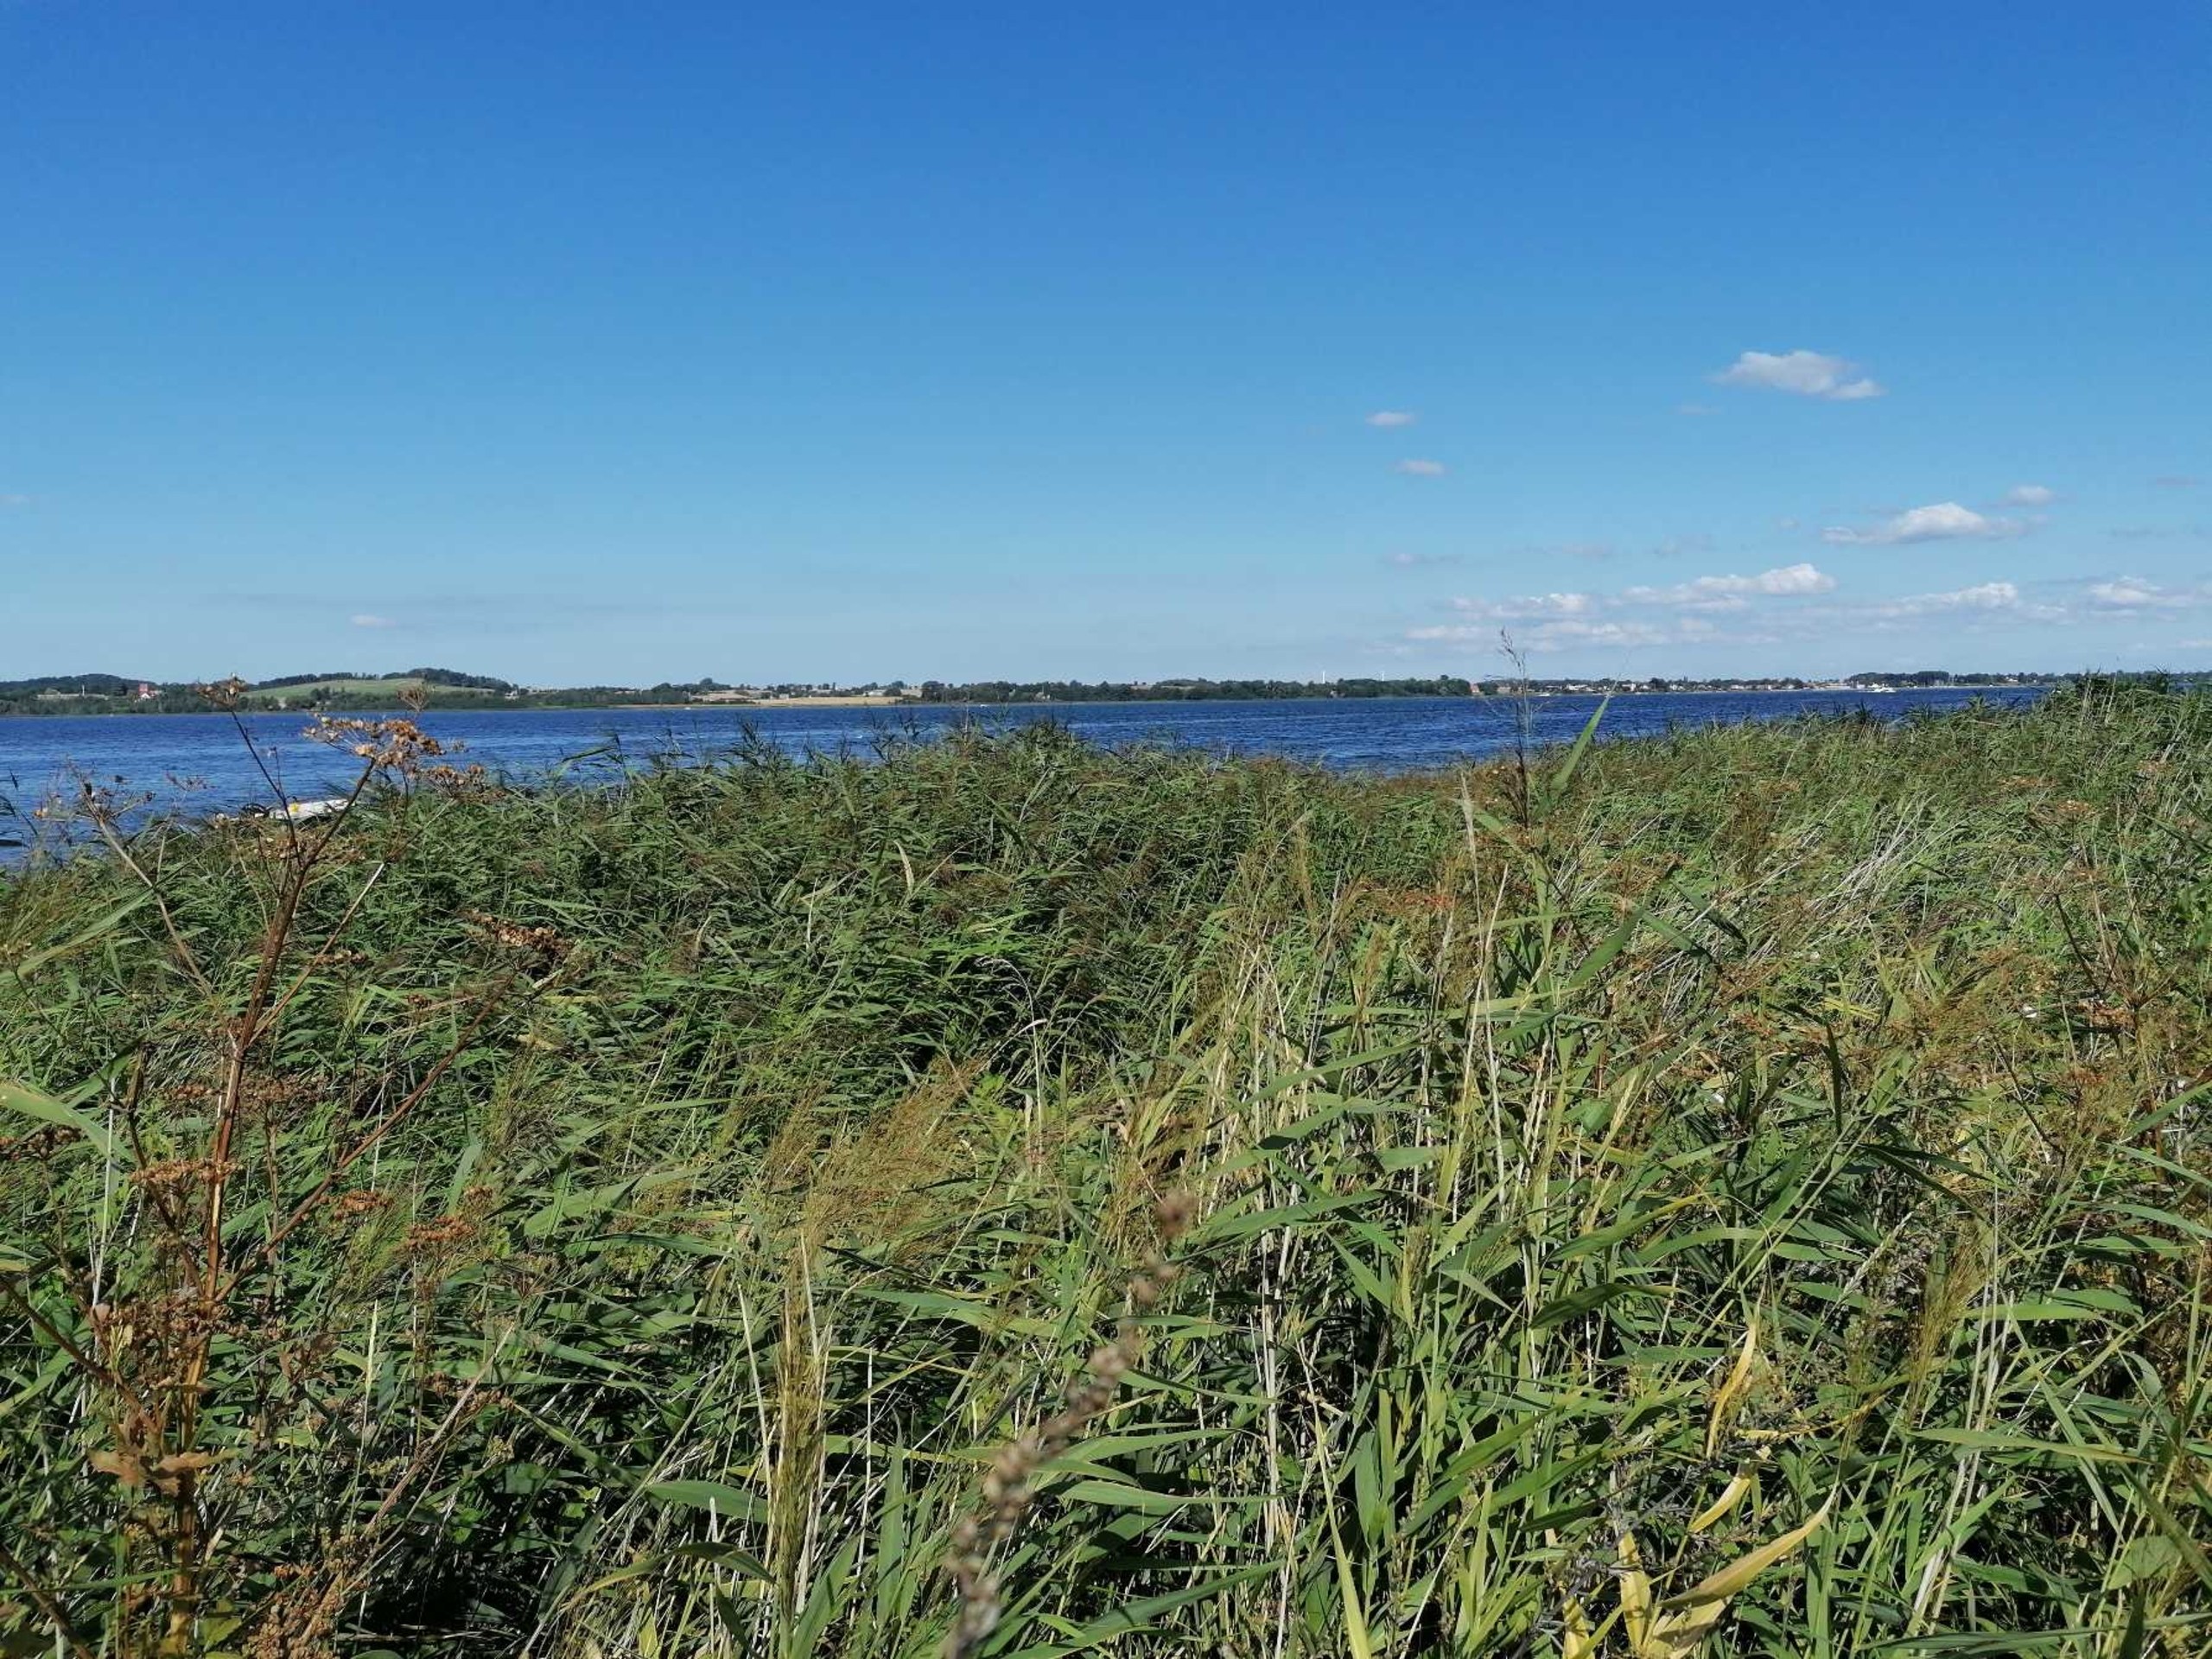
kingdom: Plantae
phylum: Tracheophyta
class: Liliopsida
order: Poales
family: Poaceae
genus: Phragmites
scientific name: Phragmites australis
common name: Tagrør
